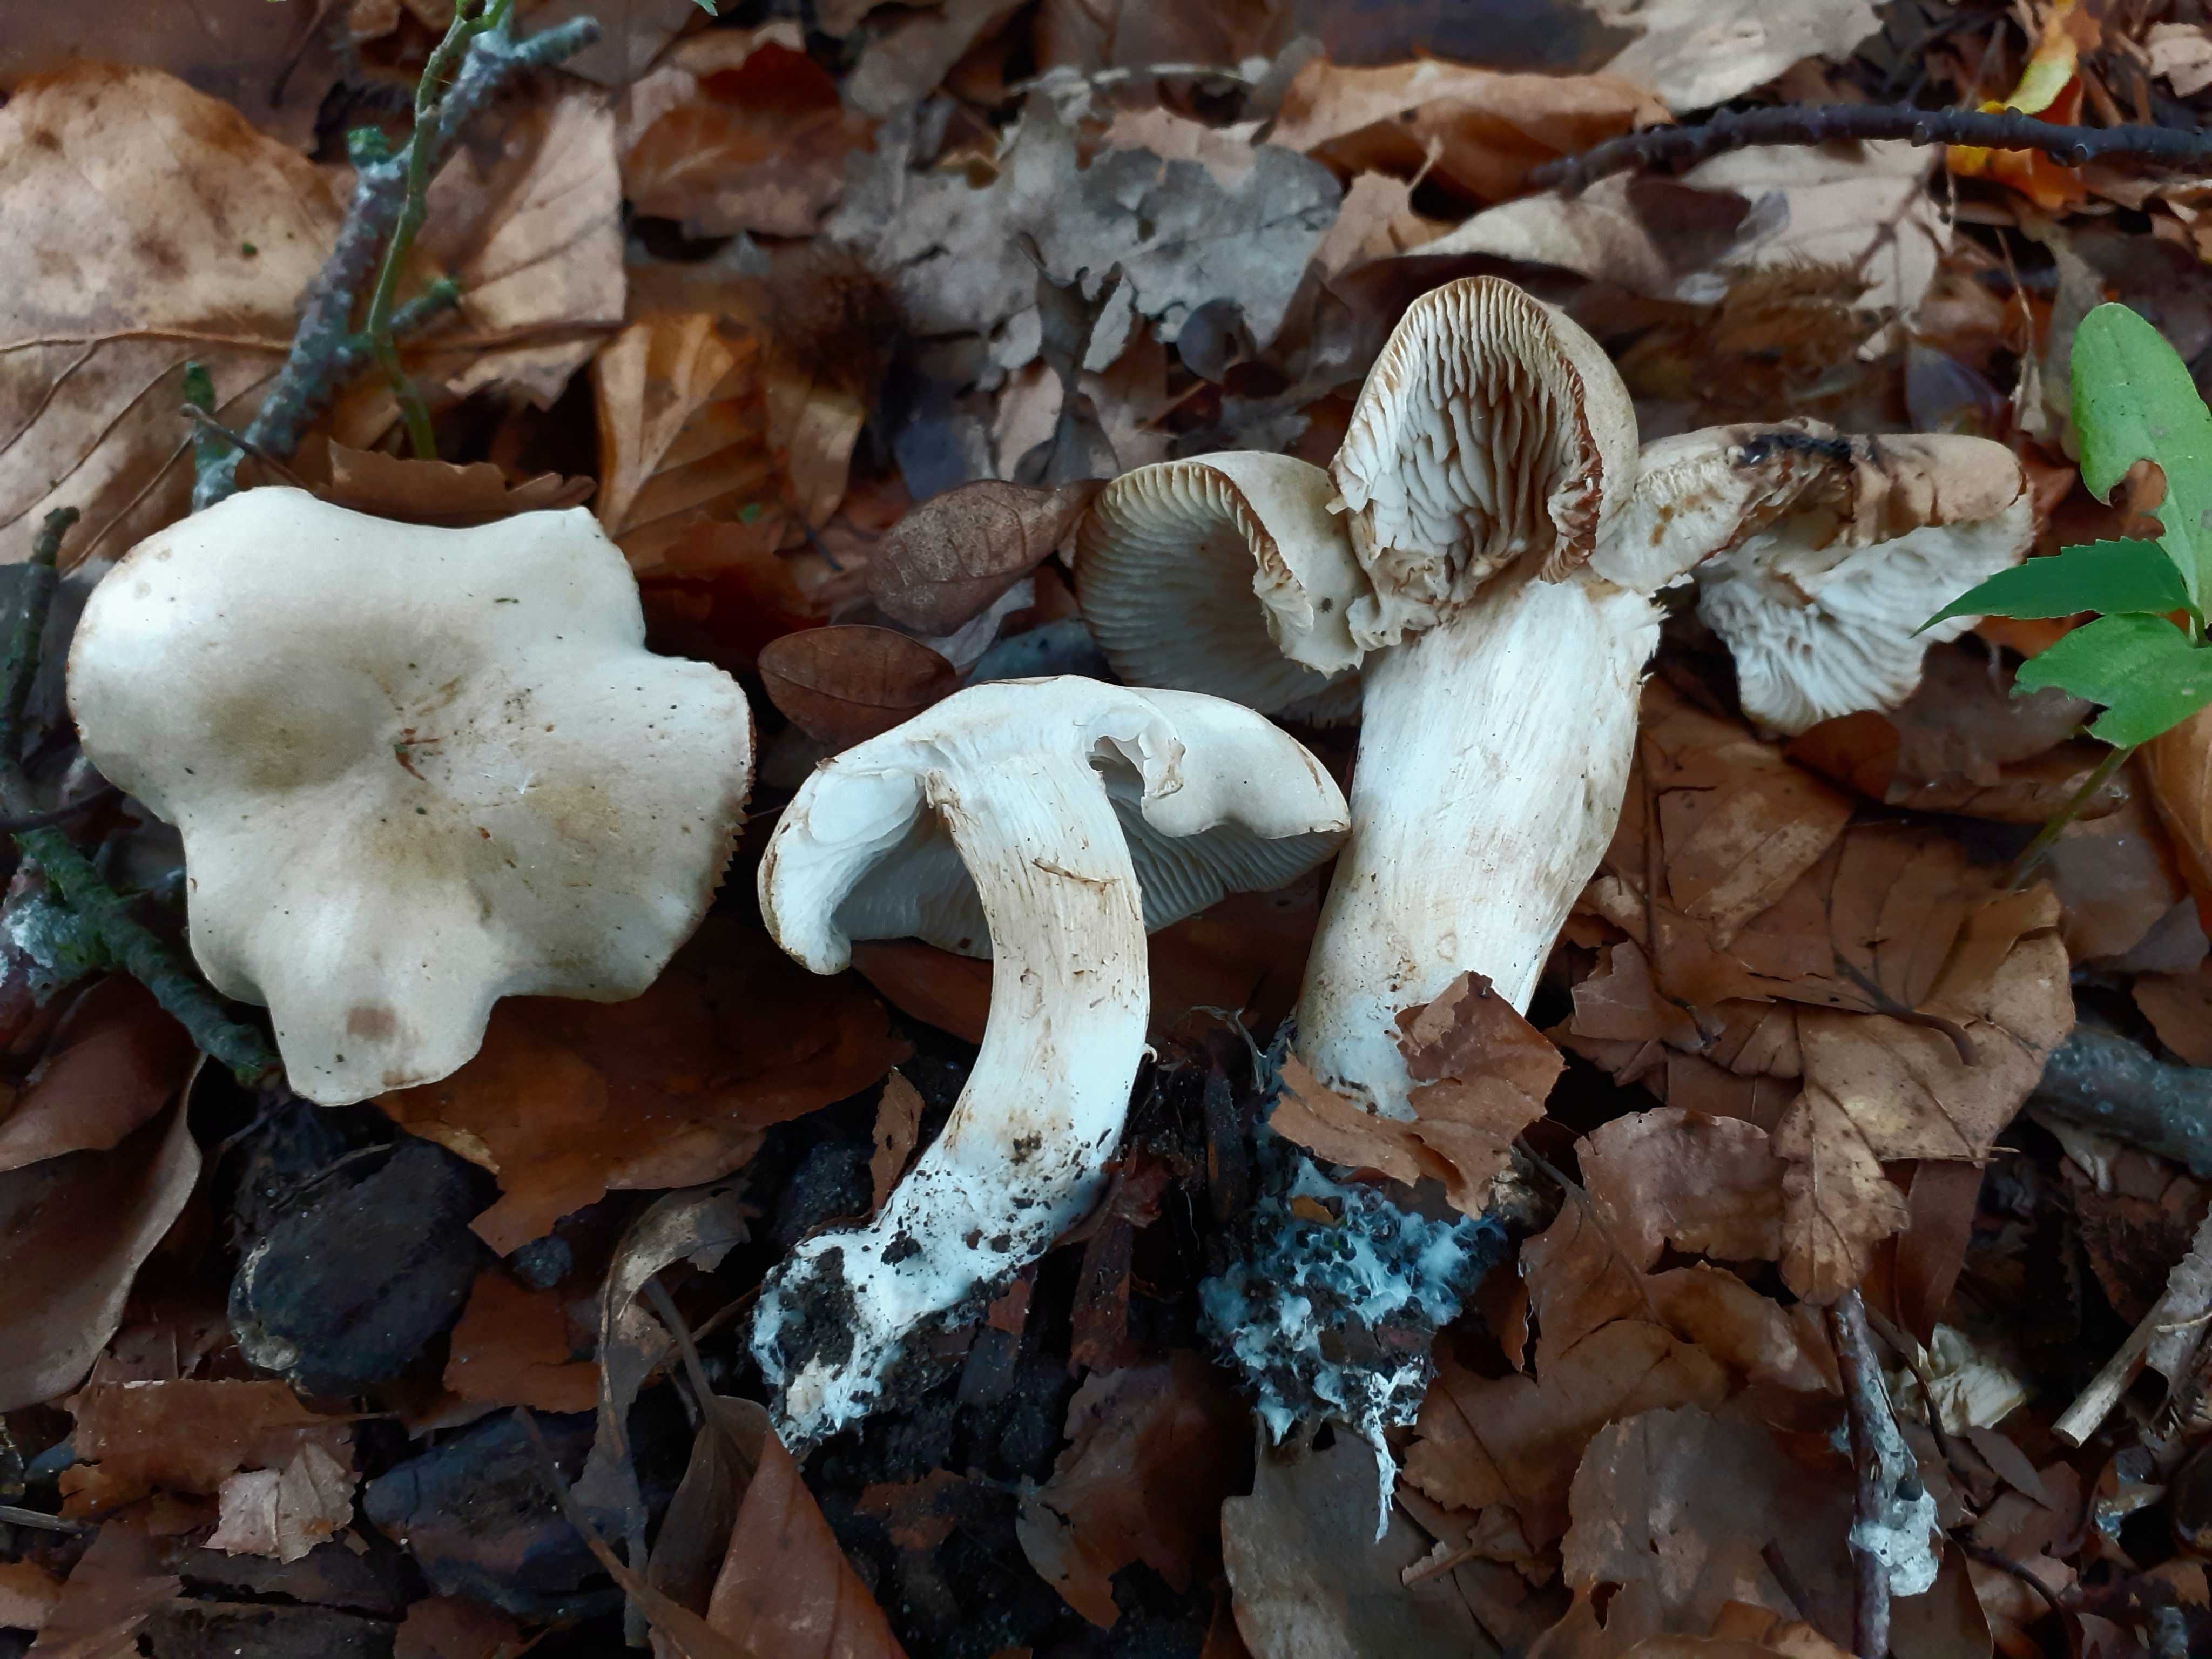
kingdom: Fungi
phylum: Basidiomycota
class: Agaricomycetes
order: Agaricales
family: Tricholomataceae
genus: Tricholoma
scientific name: Tricholoma lascivum
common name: stinkende ridderhat
